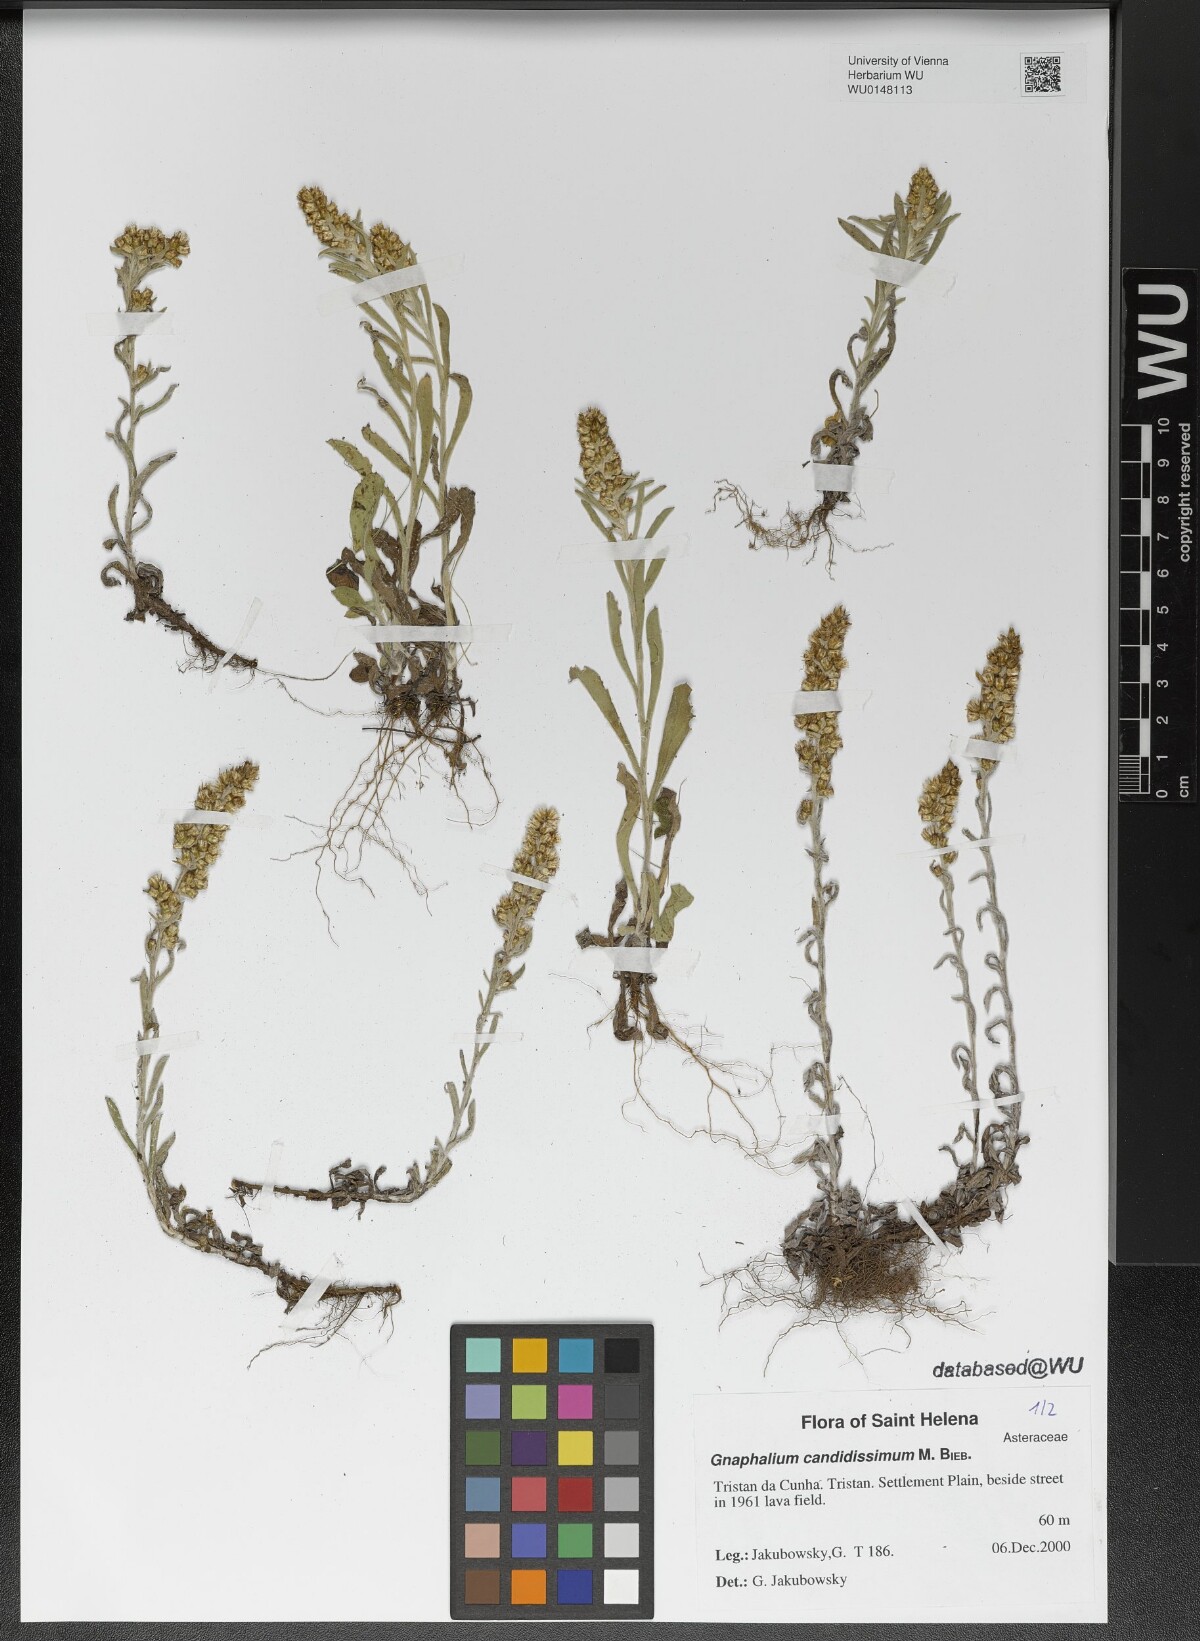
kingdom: Plantae
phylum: Tracheophyta
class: Magnoliopsida
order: Asterales
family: Asteraceae
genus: Cladochaeta
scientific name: Cladochaeta candissima
